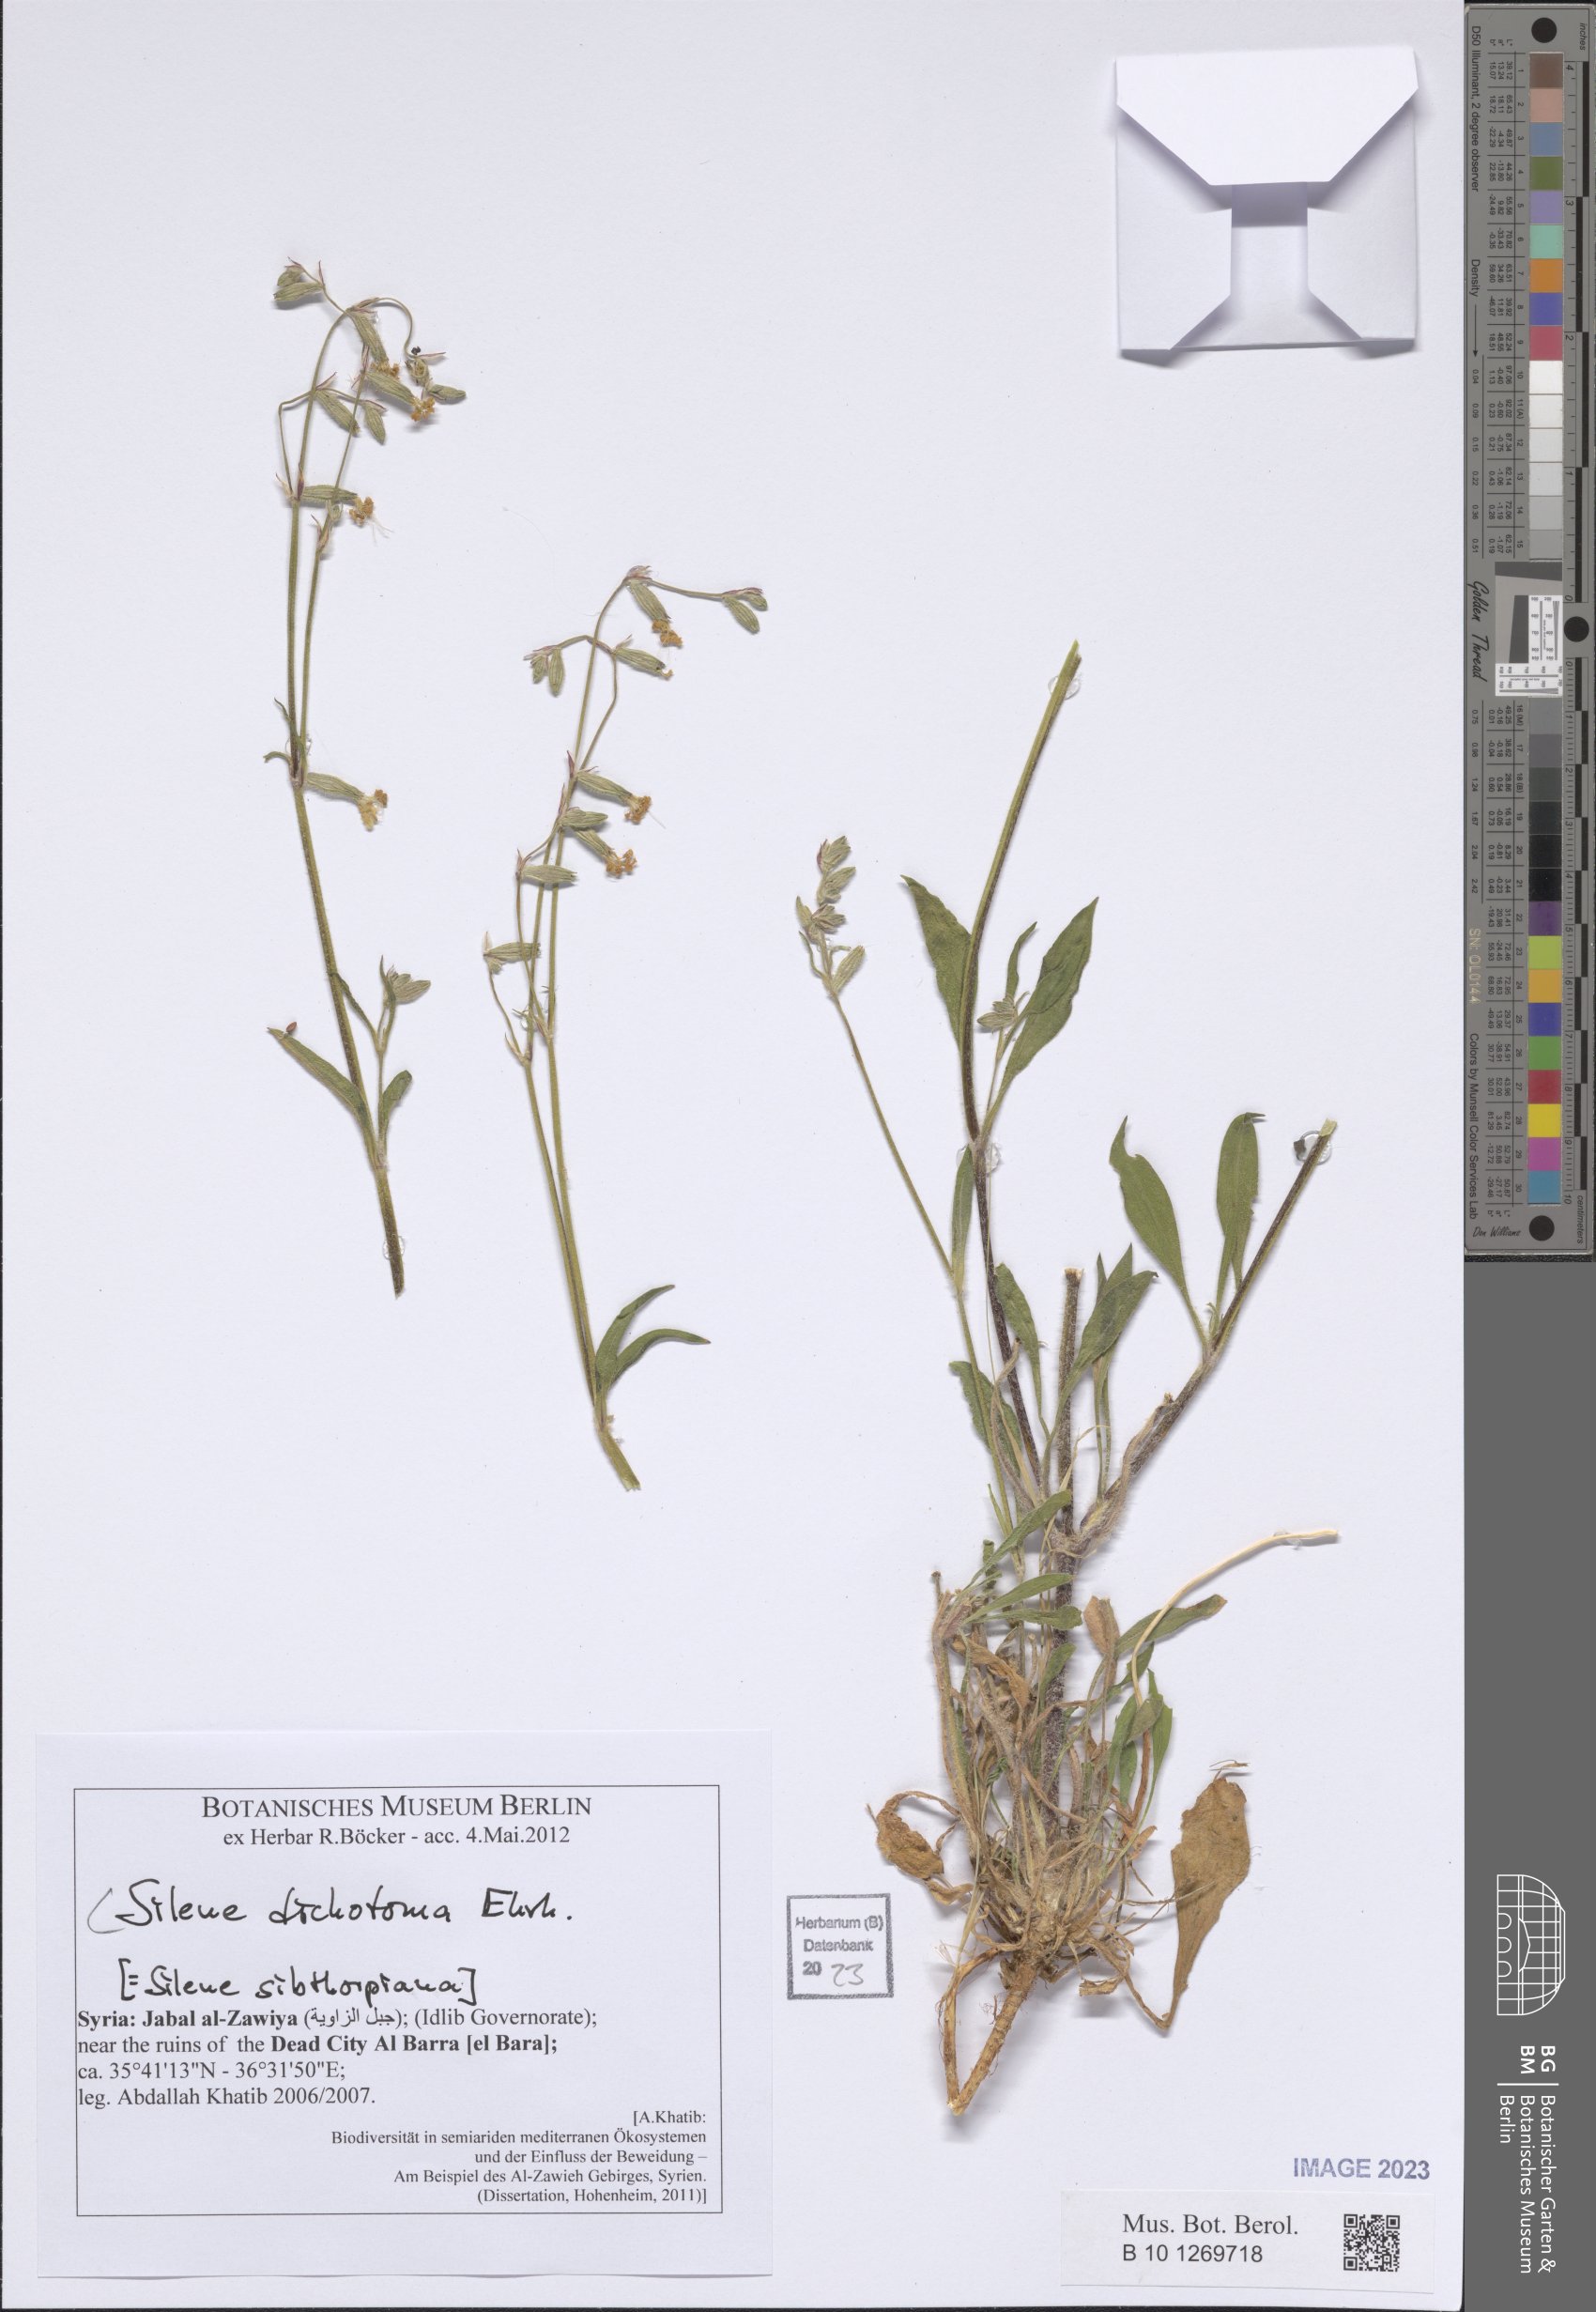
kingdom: Plantae
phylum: Tracheophyta
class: Magnoliopsida
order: Caryophyllales
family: Caryophyllaceae
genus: Silene
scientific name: Silene dichotoma
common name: Forked catchfly
